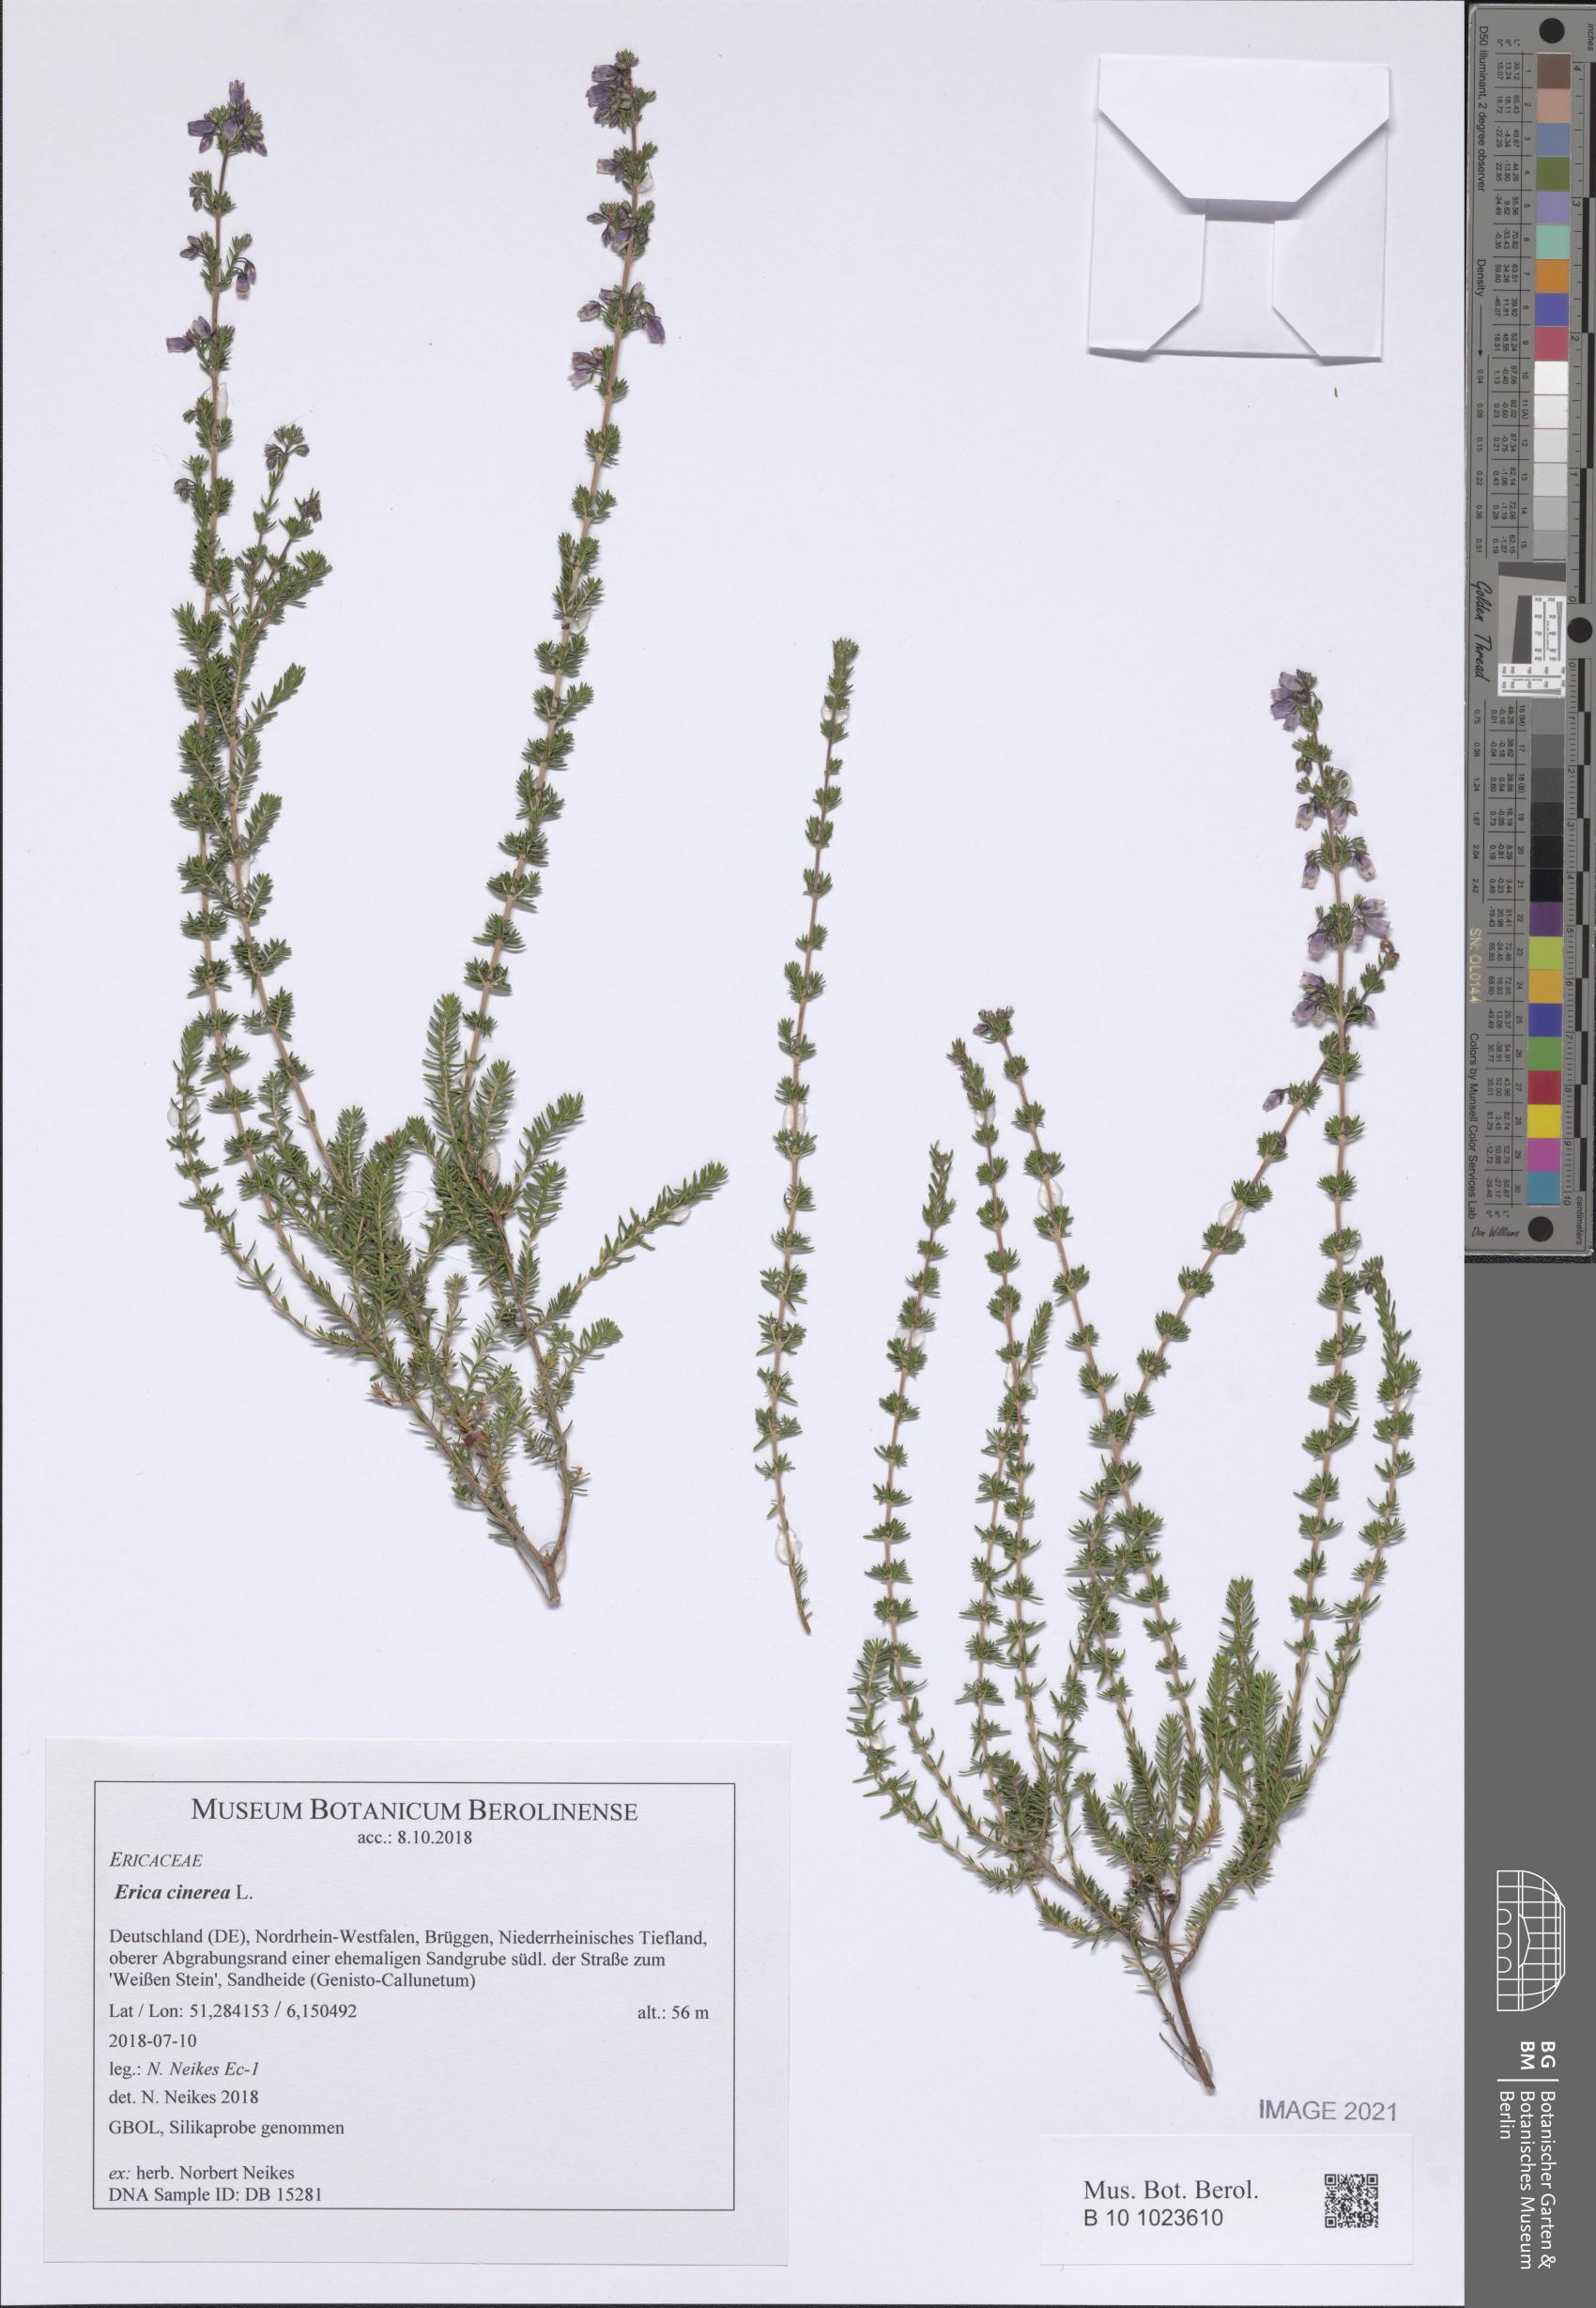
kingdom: Plantae
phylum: Tracheophyta
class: Magnoliopsida
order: Ericales
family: Ericaceae
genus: Erica
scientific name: Erica cinerea
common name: Bell heather
